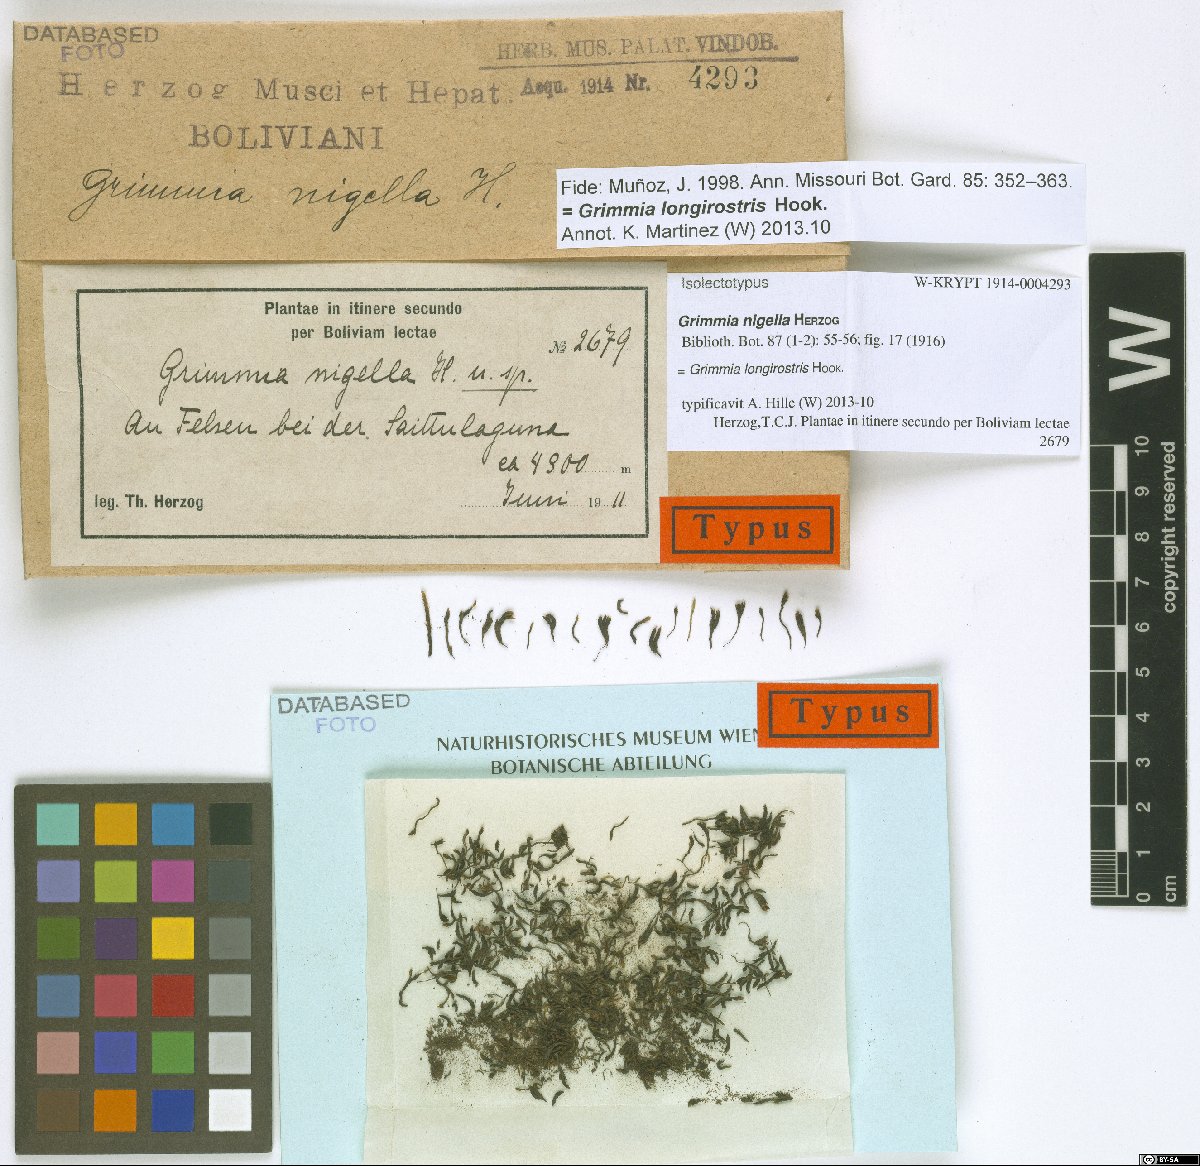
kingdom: Plantae
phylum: Bryophyta
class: Bryopsida
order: Grimmiales
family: Grimmiaceae
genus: Grimmia
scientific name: Grimmia herzogii
